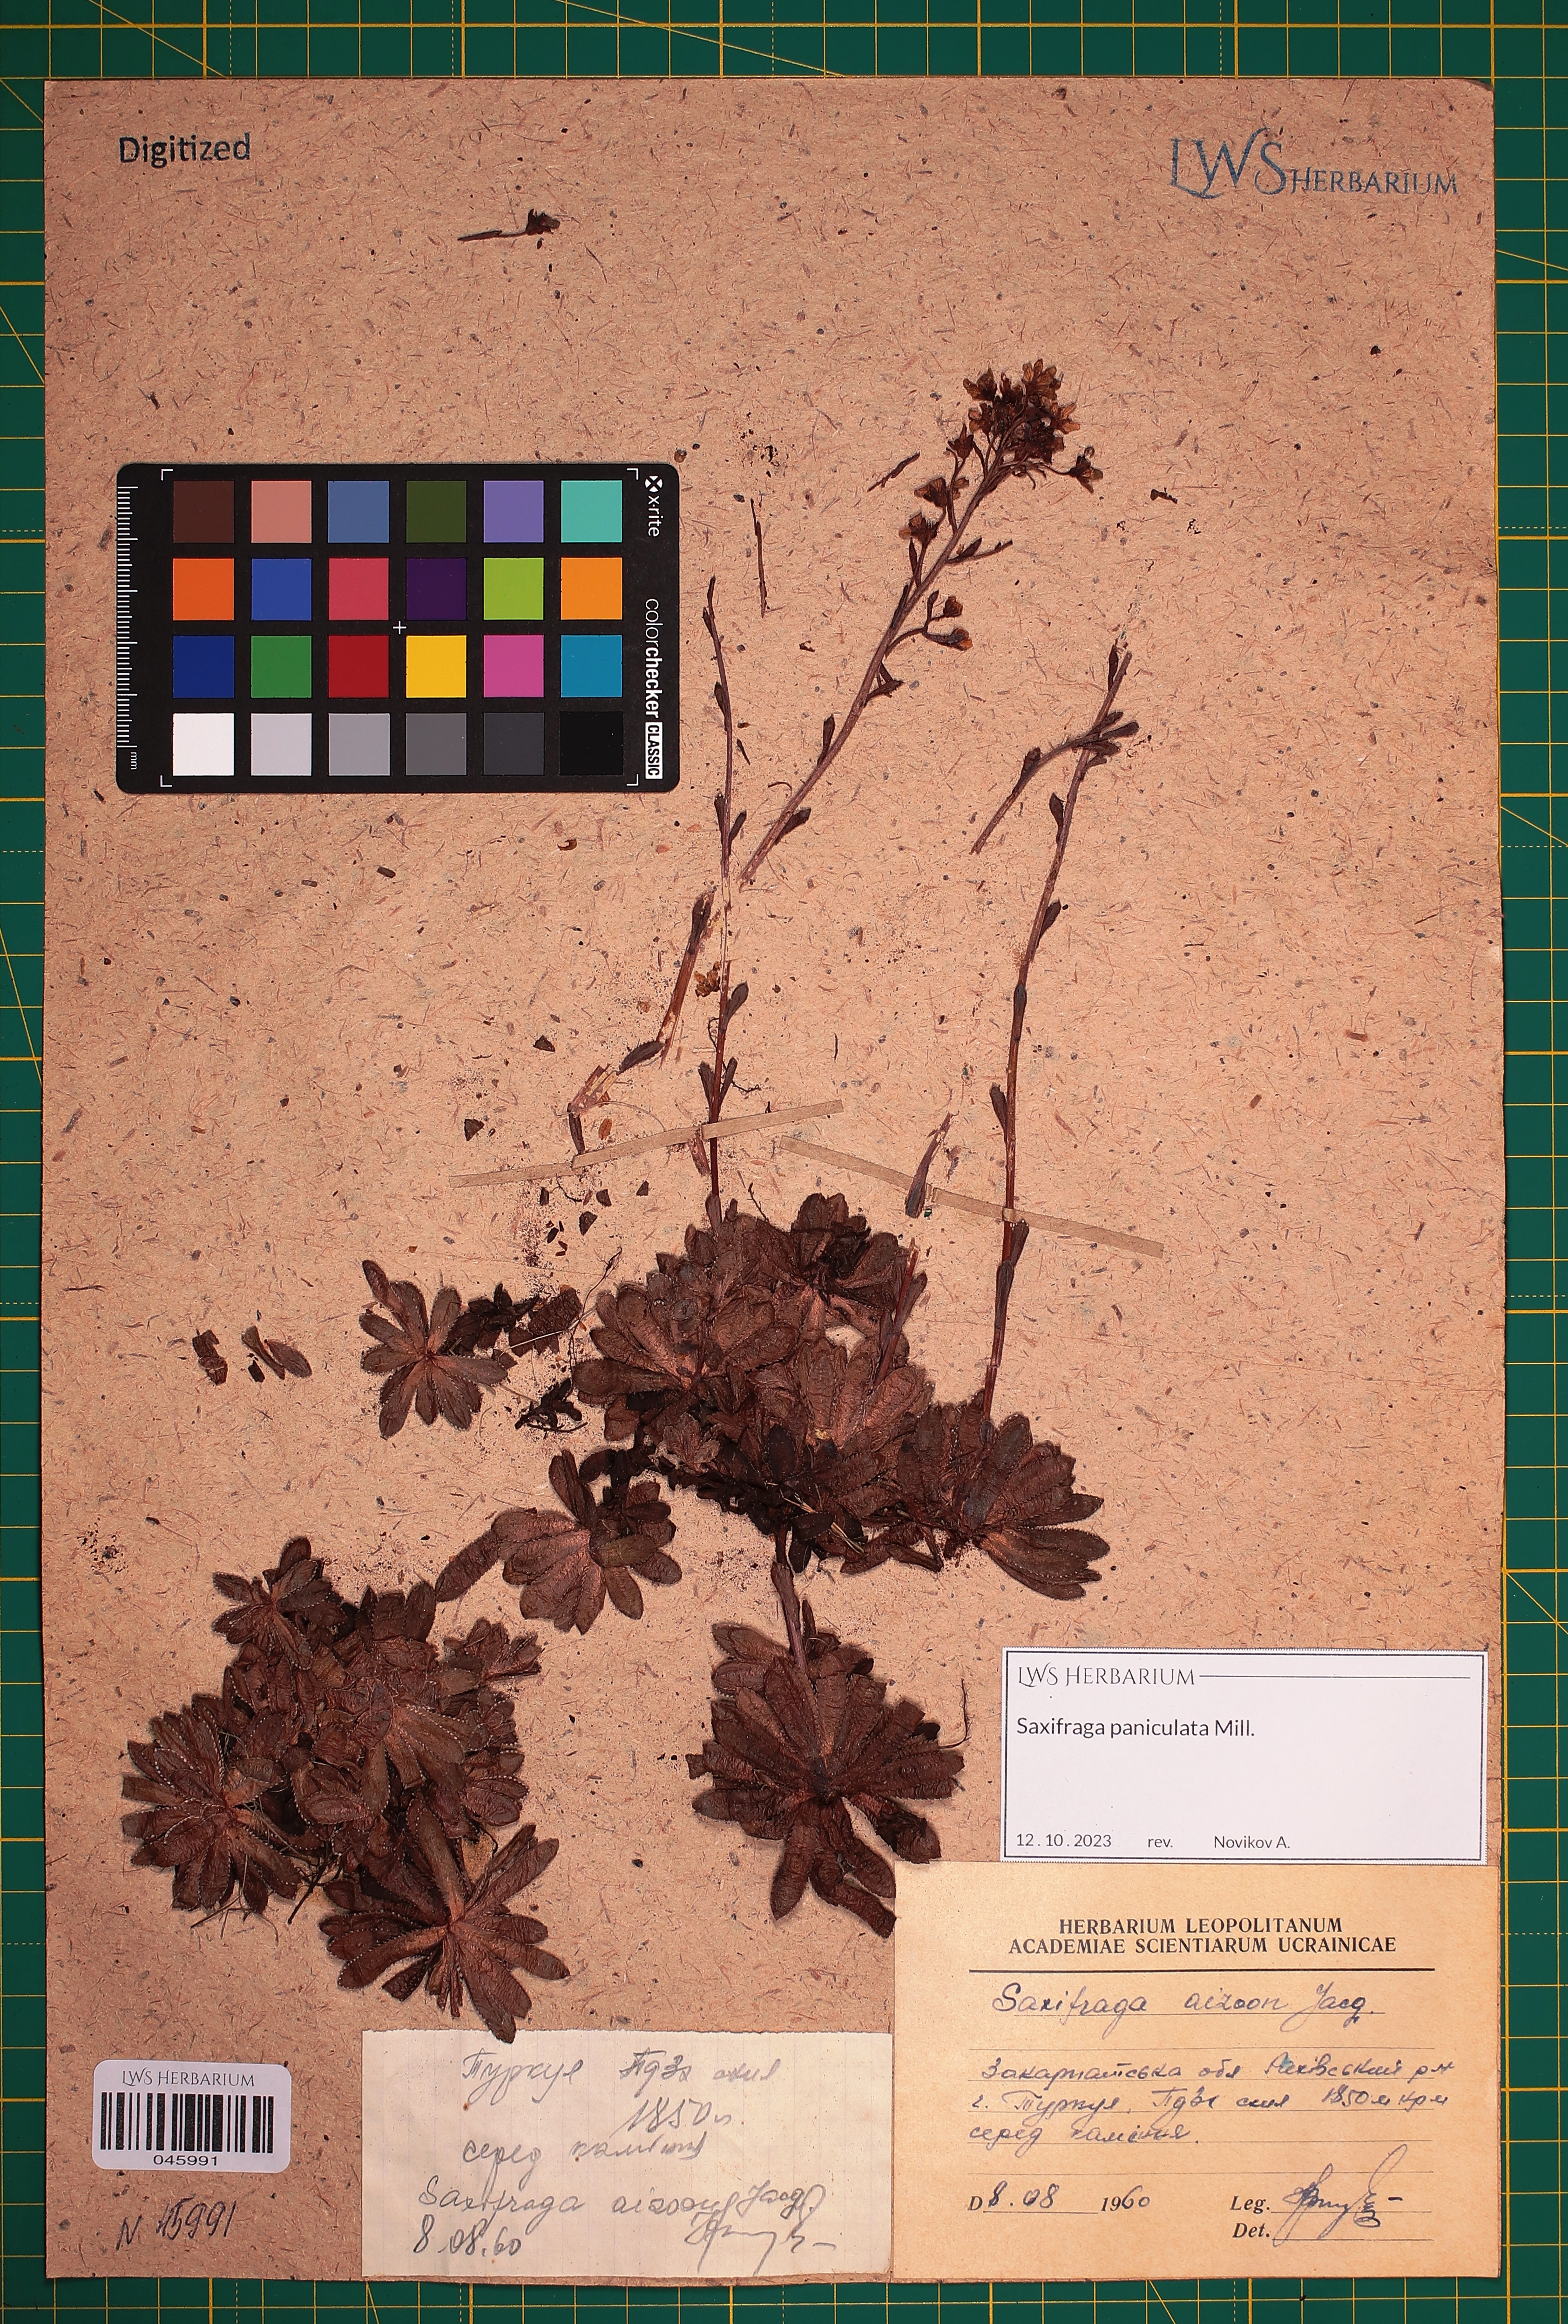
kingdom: Plantae
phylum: Tracheophyta
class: Magnoliopsida
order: Saxifragales
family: Saxifragaceae
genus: Saxifraga
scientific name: Saxifraga paniculata
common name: Livelong saxifrage
